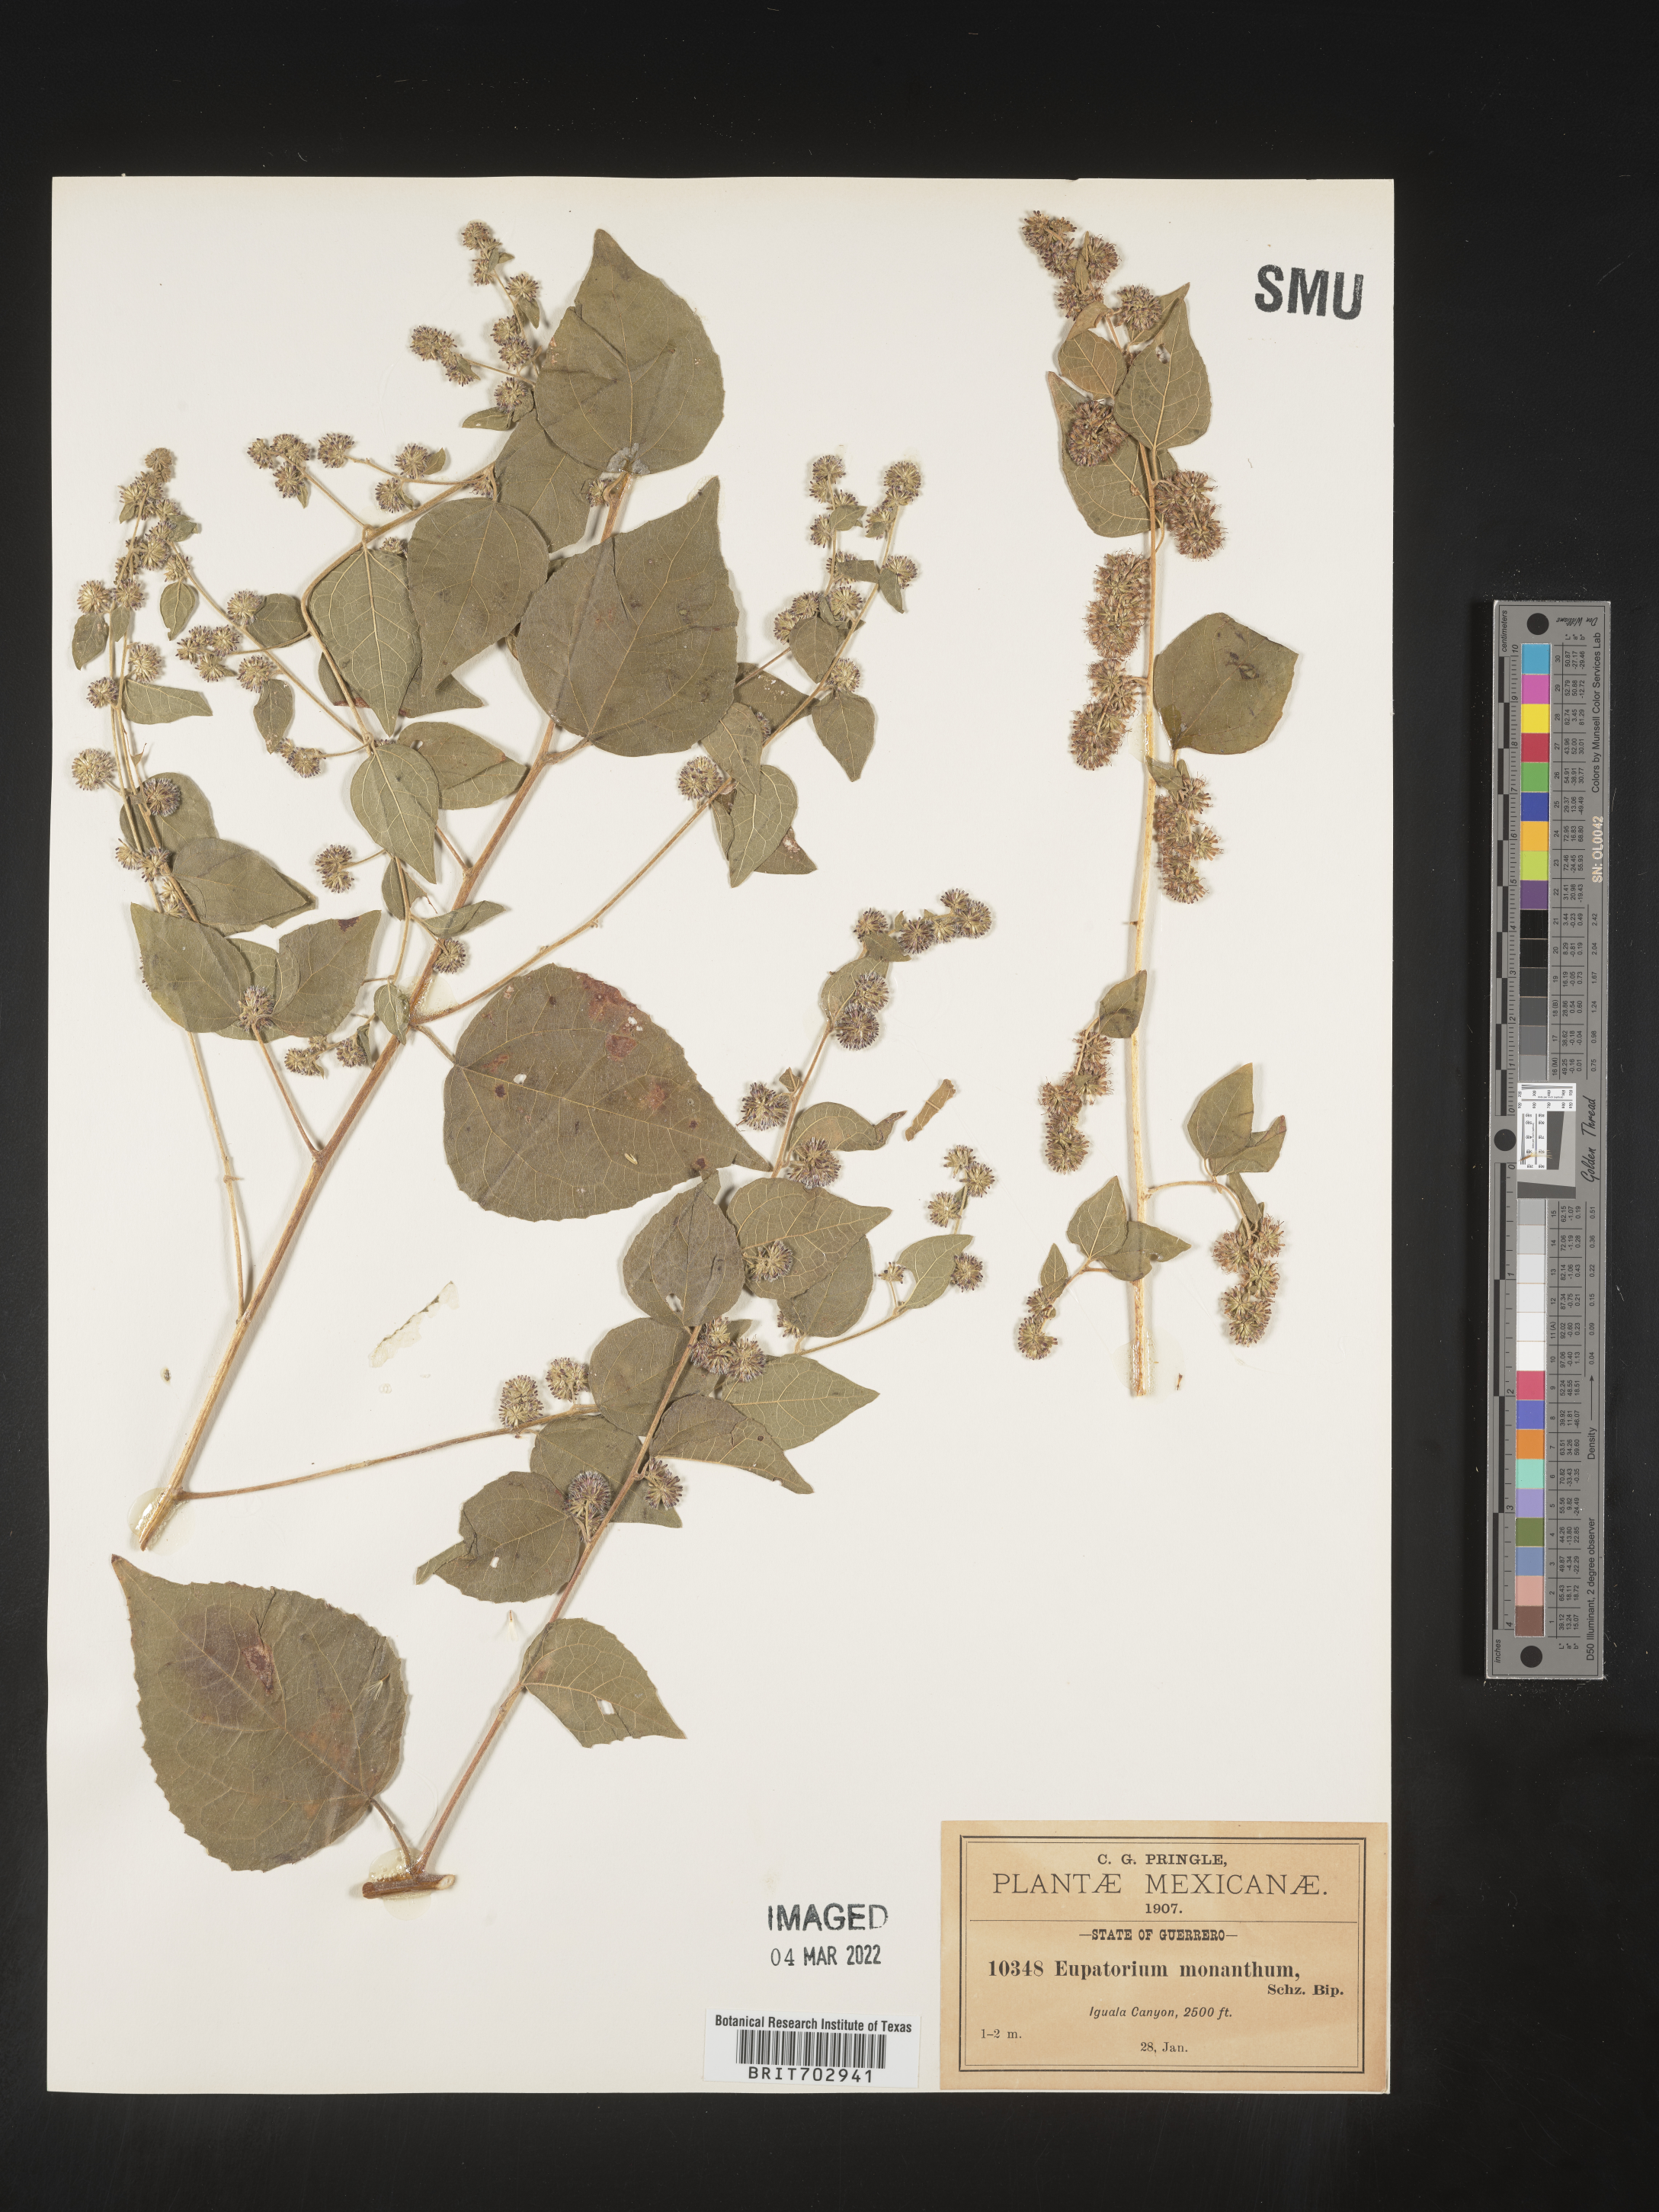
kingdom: Plantae
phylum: Tracheophyta
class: Magnoliopsida
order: Asterales
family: Asteraceae
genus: Eupatorium
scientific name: Eupatorium
